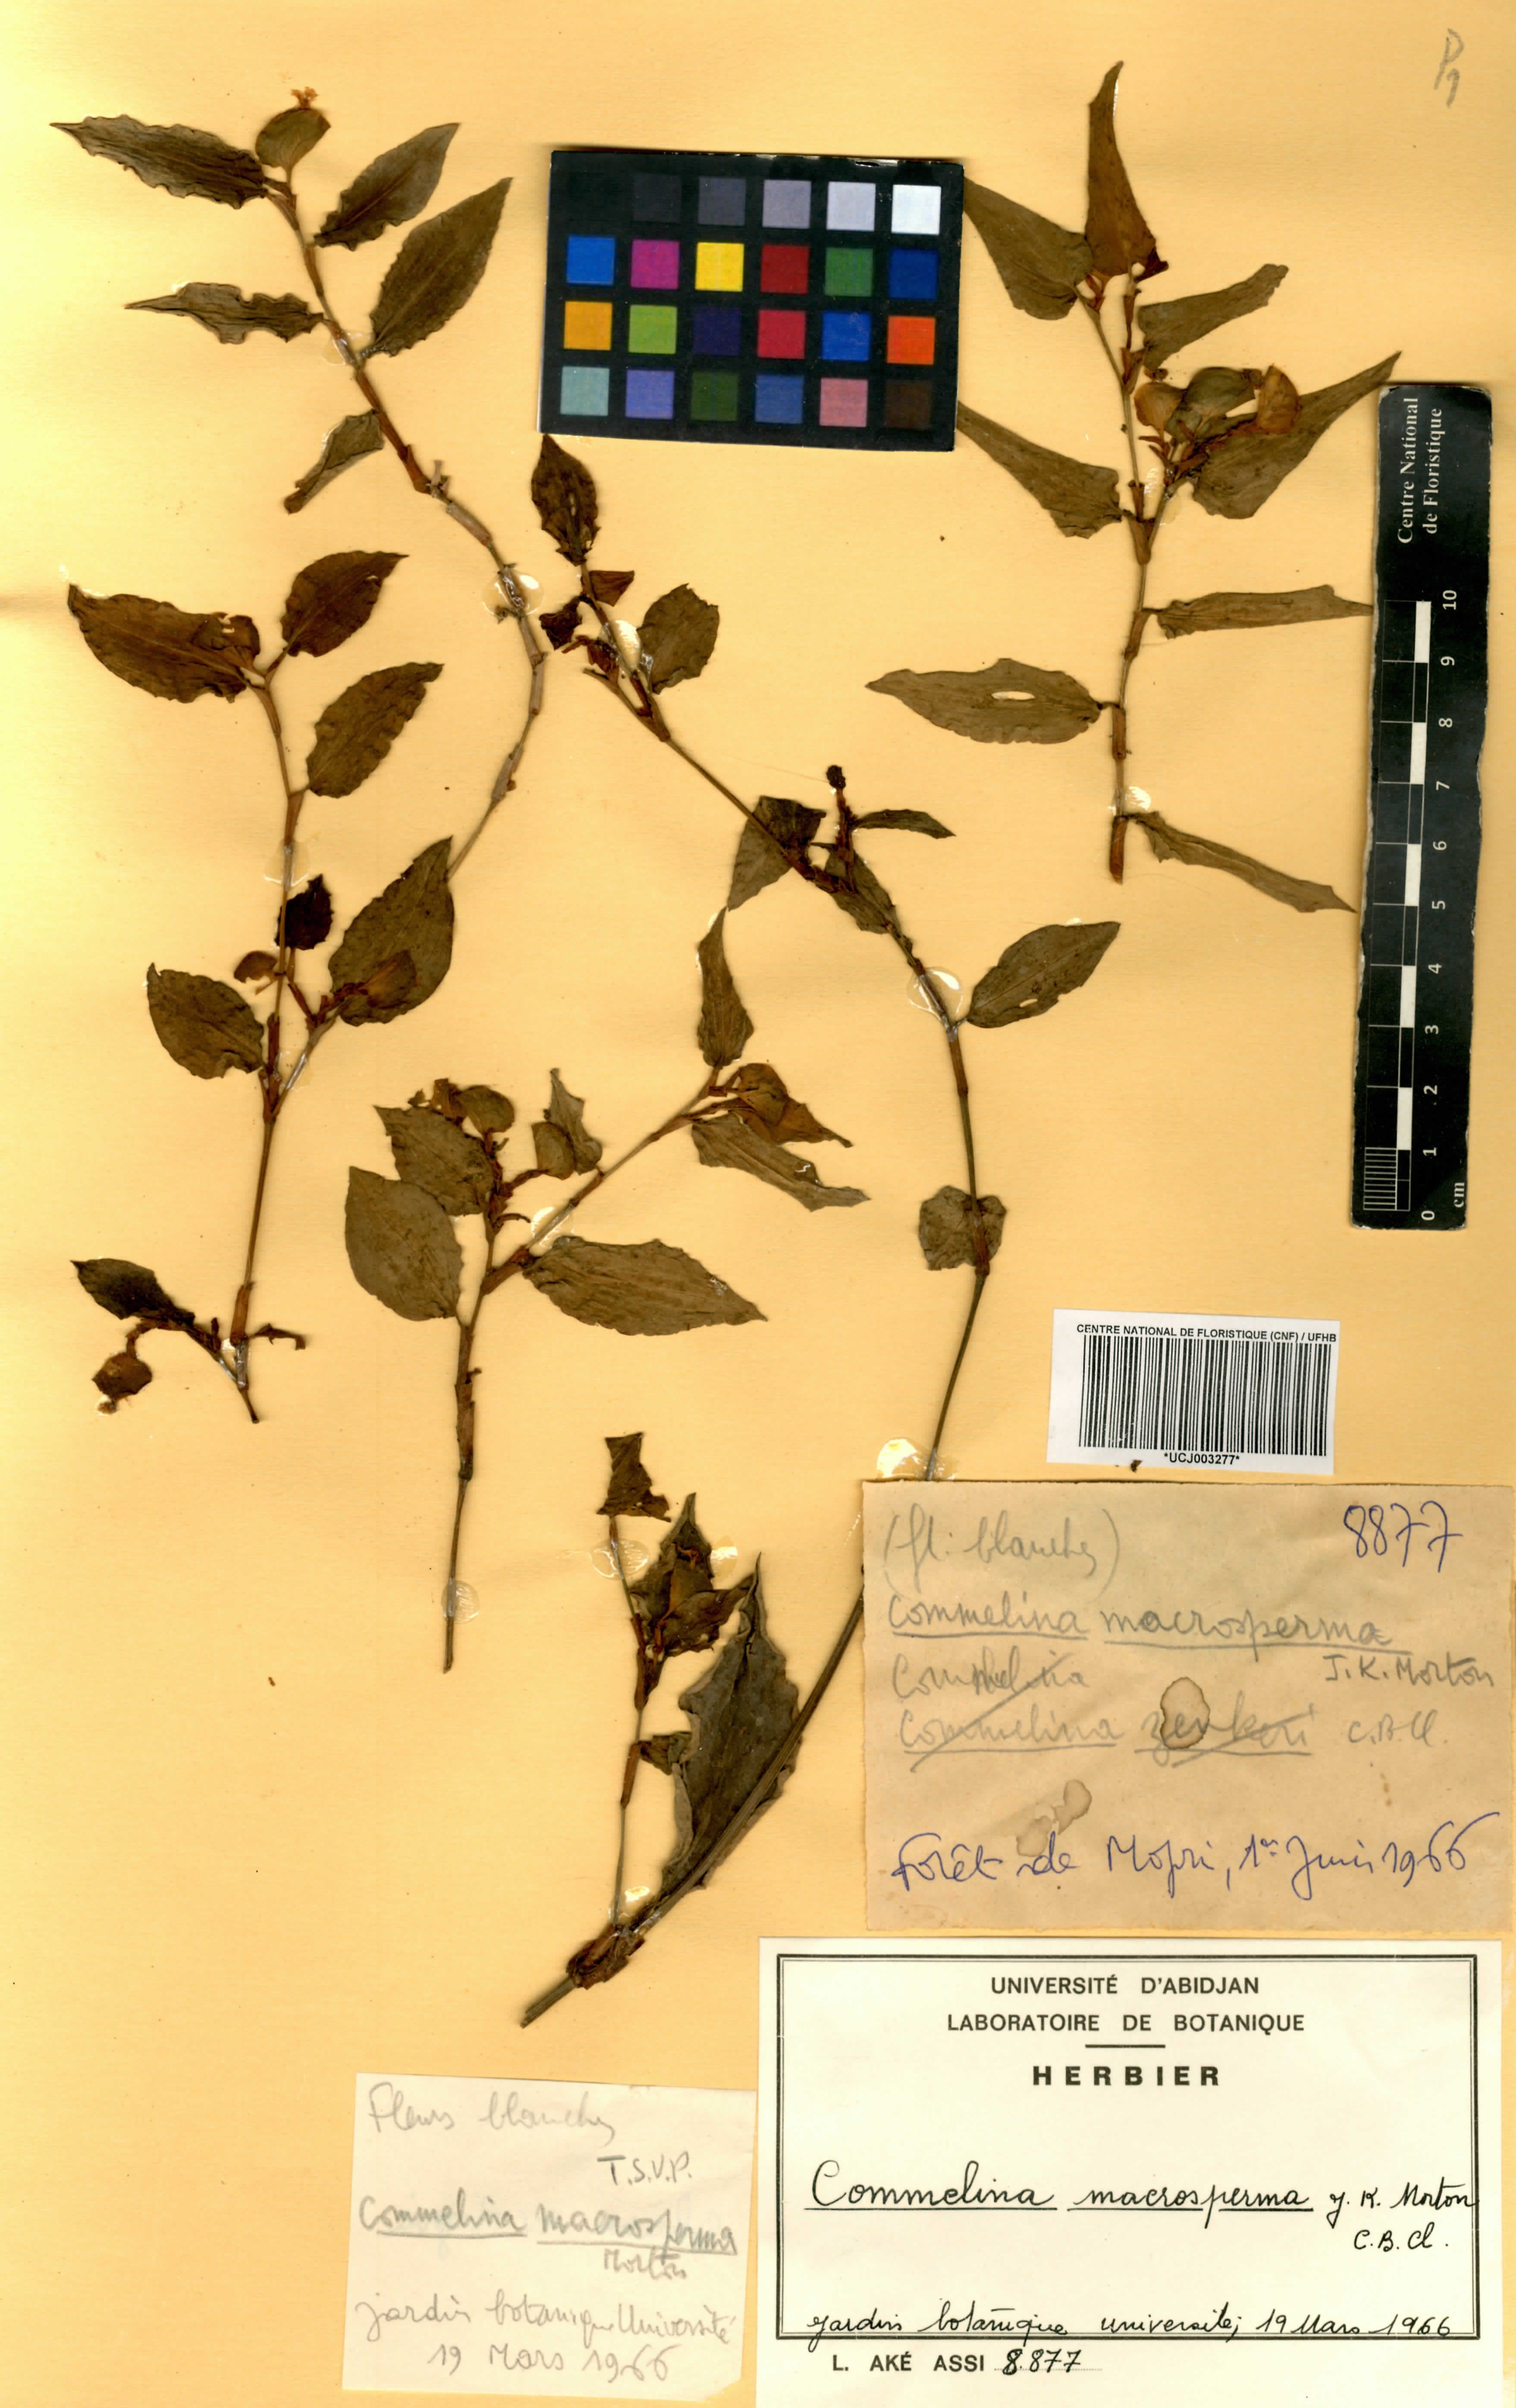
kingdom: Plantae
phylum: Tracheophyta
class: Liliopsida
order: Commelinales
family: Commelinaceae
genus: Commelina
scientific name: Commelina macrosperma
